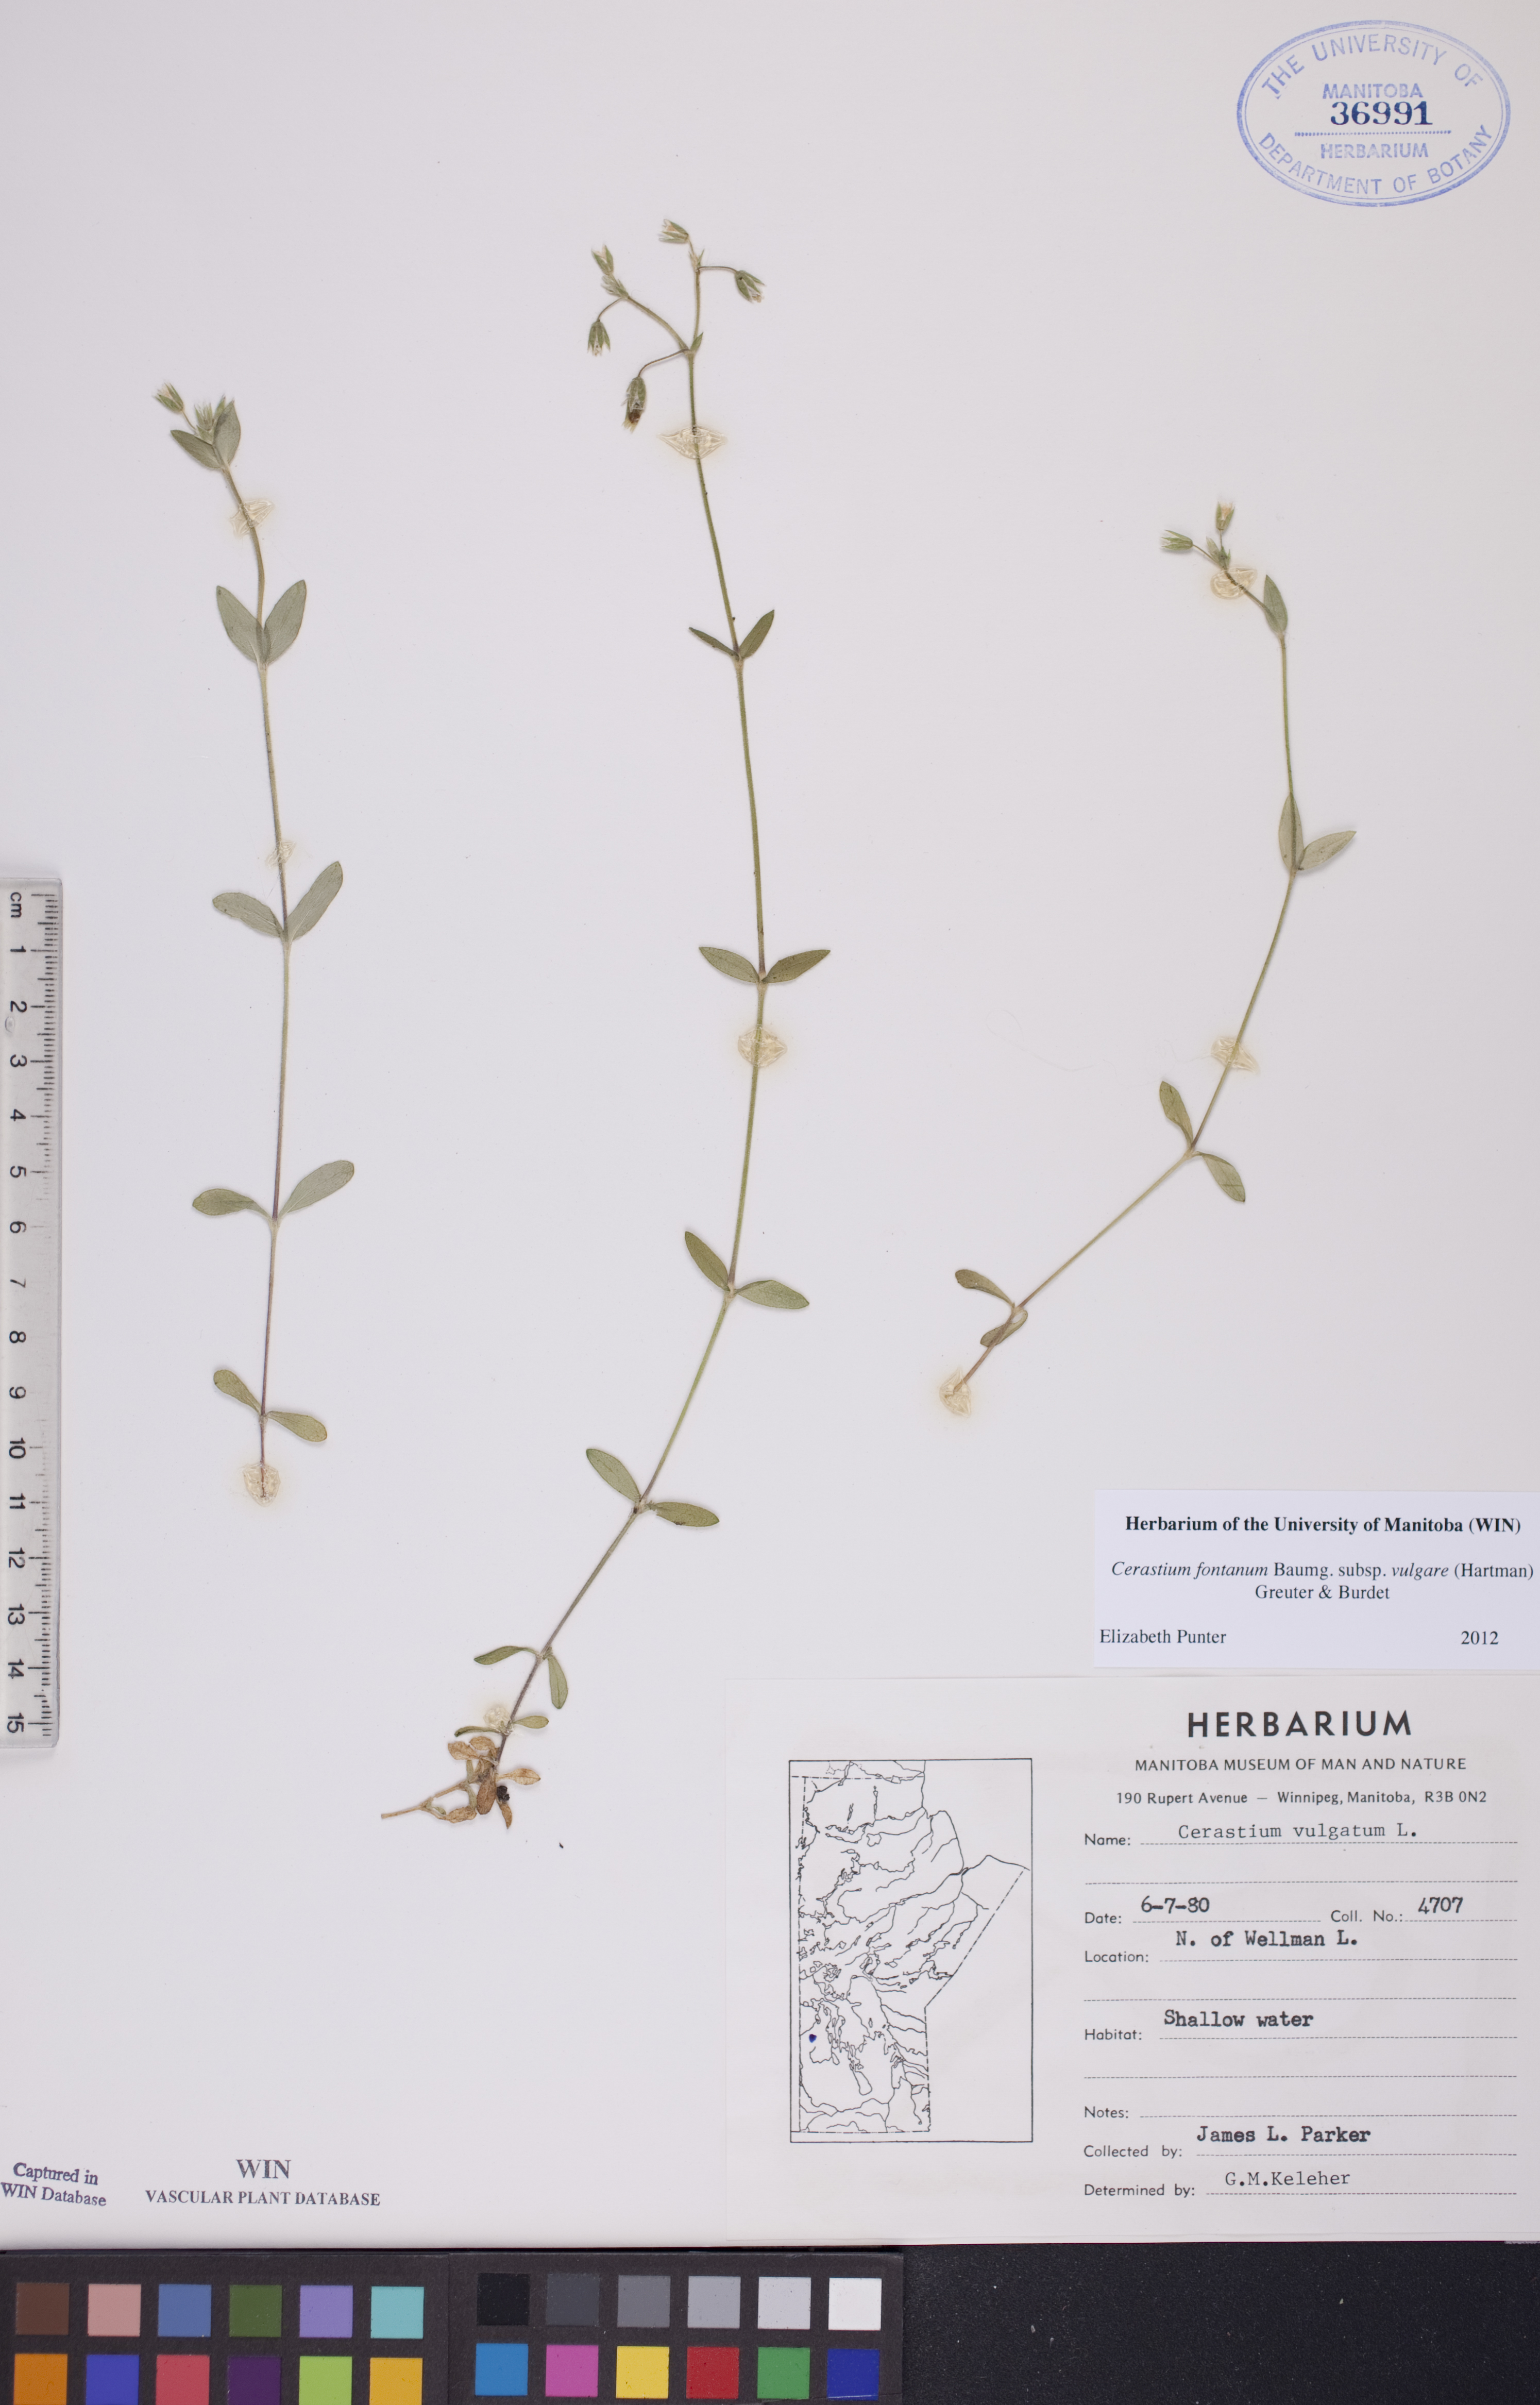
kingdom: Plantae
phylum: Tracheophyta
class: Magnoliopsida
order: Caryophyllales
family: Caryophyllaceae
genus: Cerastium
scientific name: Cerastium holosteoides
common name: Big chickweed
